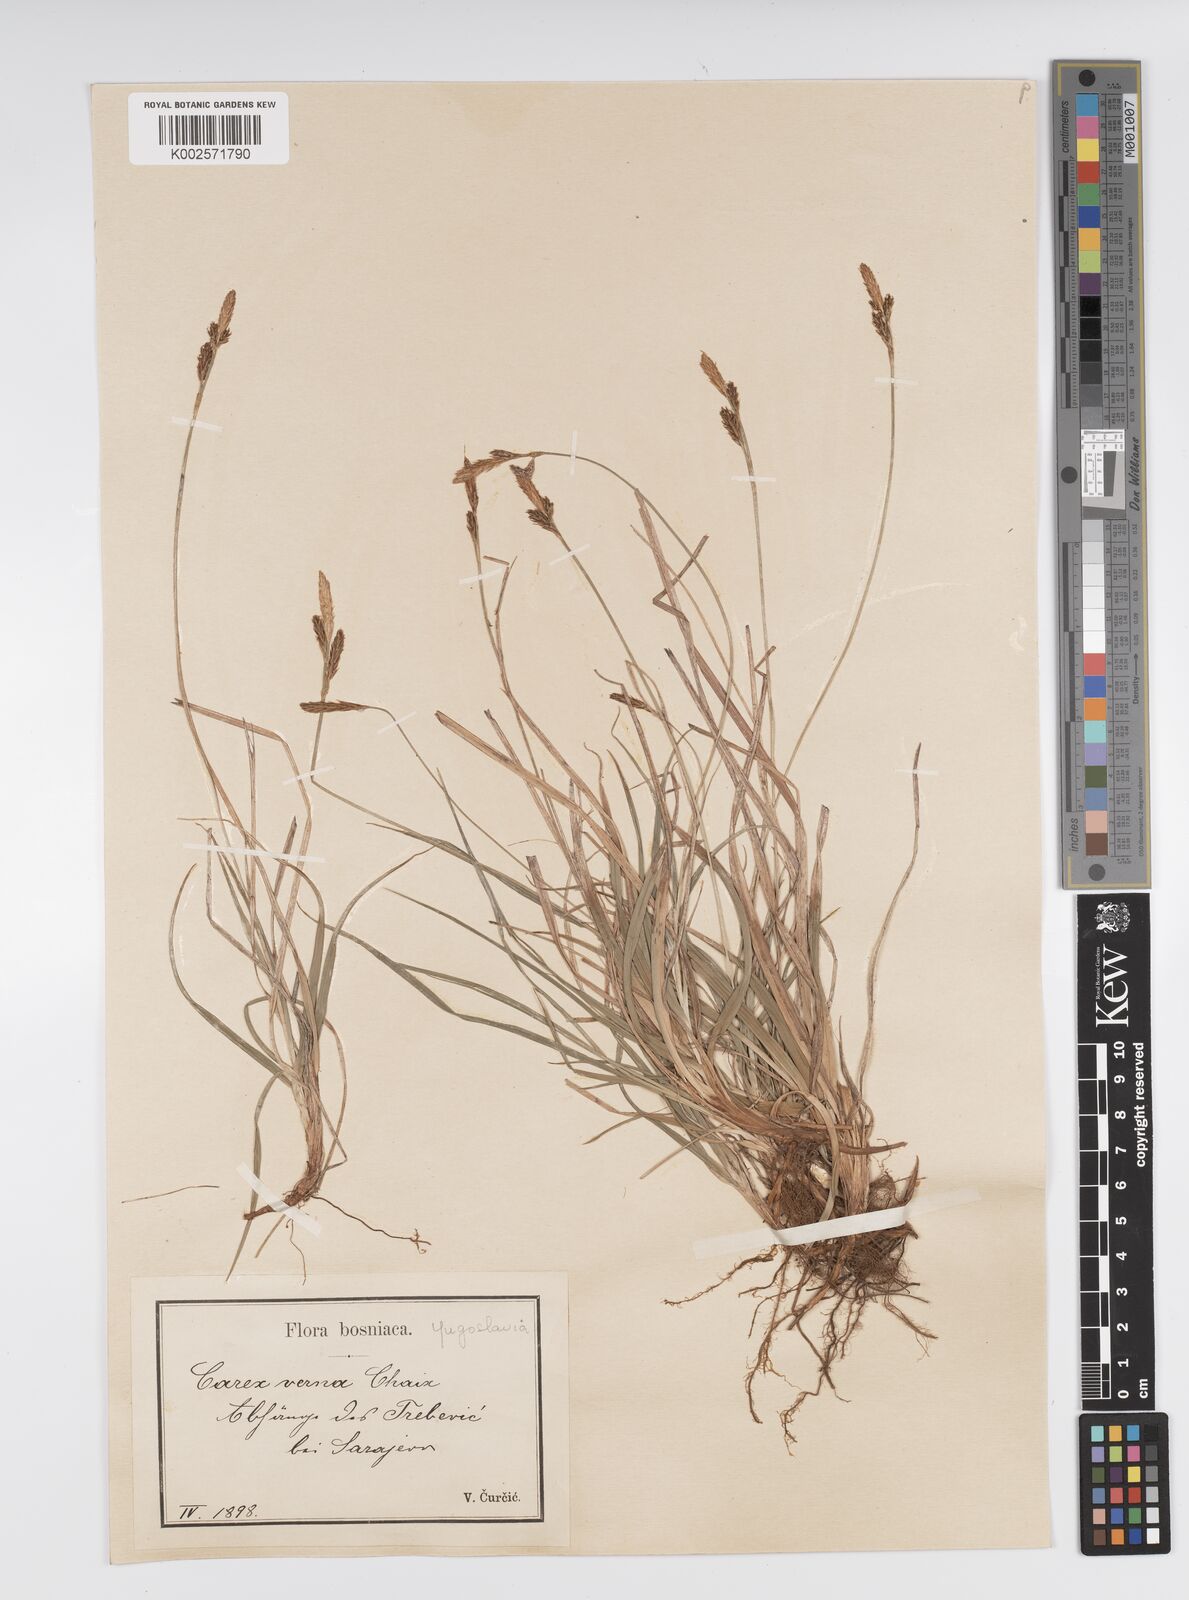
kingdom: Plantae
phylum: Tracheophyta
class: Liliopsida
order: Poales
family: Cyperaceae
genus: Carex
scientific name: Carex caryophyllea
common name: Spring sedge
